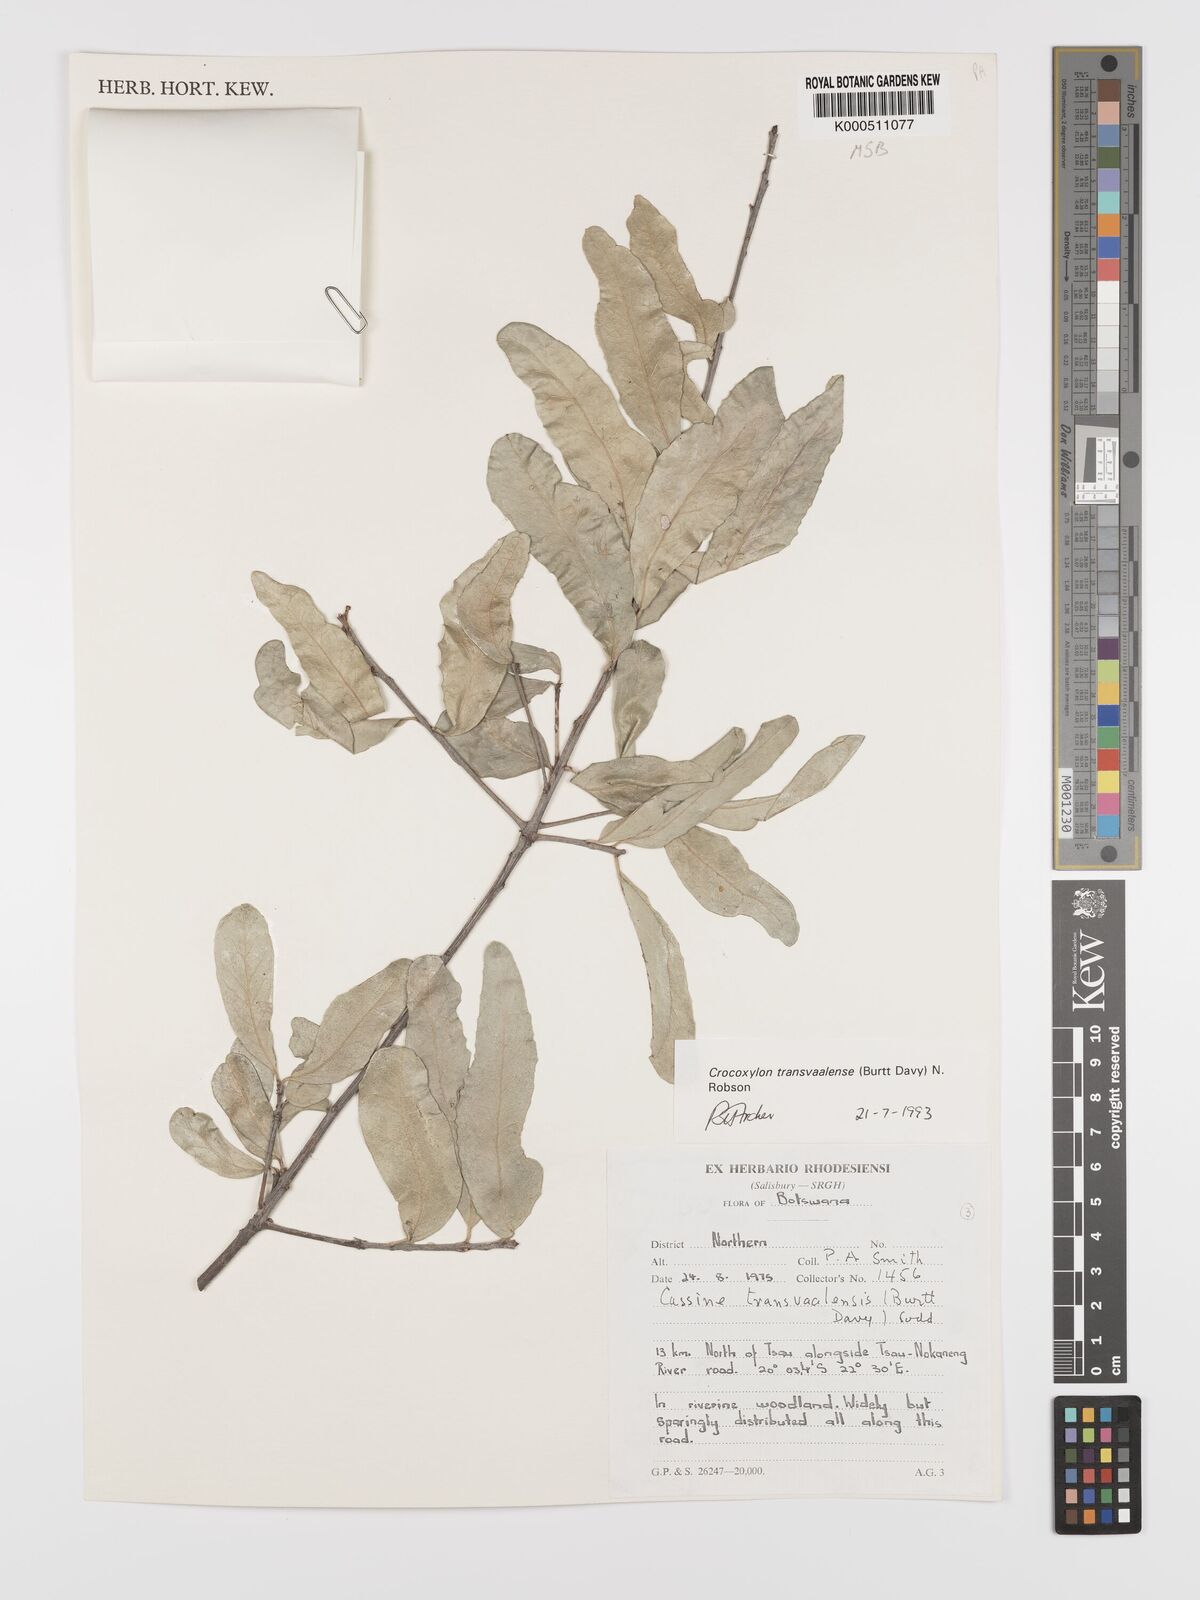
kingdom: Plantae
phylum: Tracheophyta
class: Magnoliopsida
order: Celastrales
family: Celastraceae
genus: Elaeodendron
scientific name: Elaeodendron transvaalense
